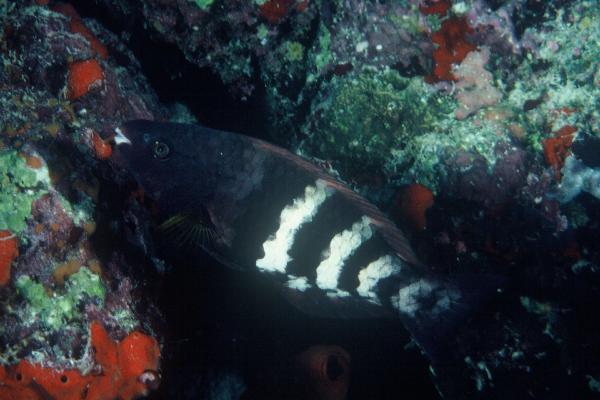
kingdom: Animalia
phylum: Chordata
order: Perciformes
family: Scaridae
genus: Scarus
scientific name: Scarus caudofasciatus
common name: Redbarred parrotfish
